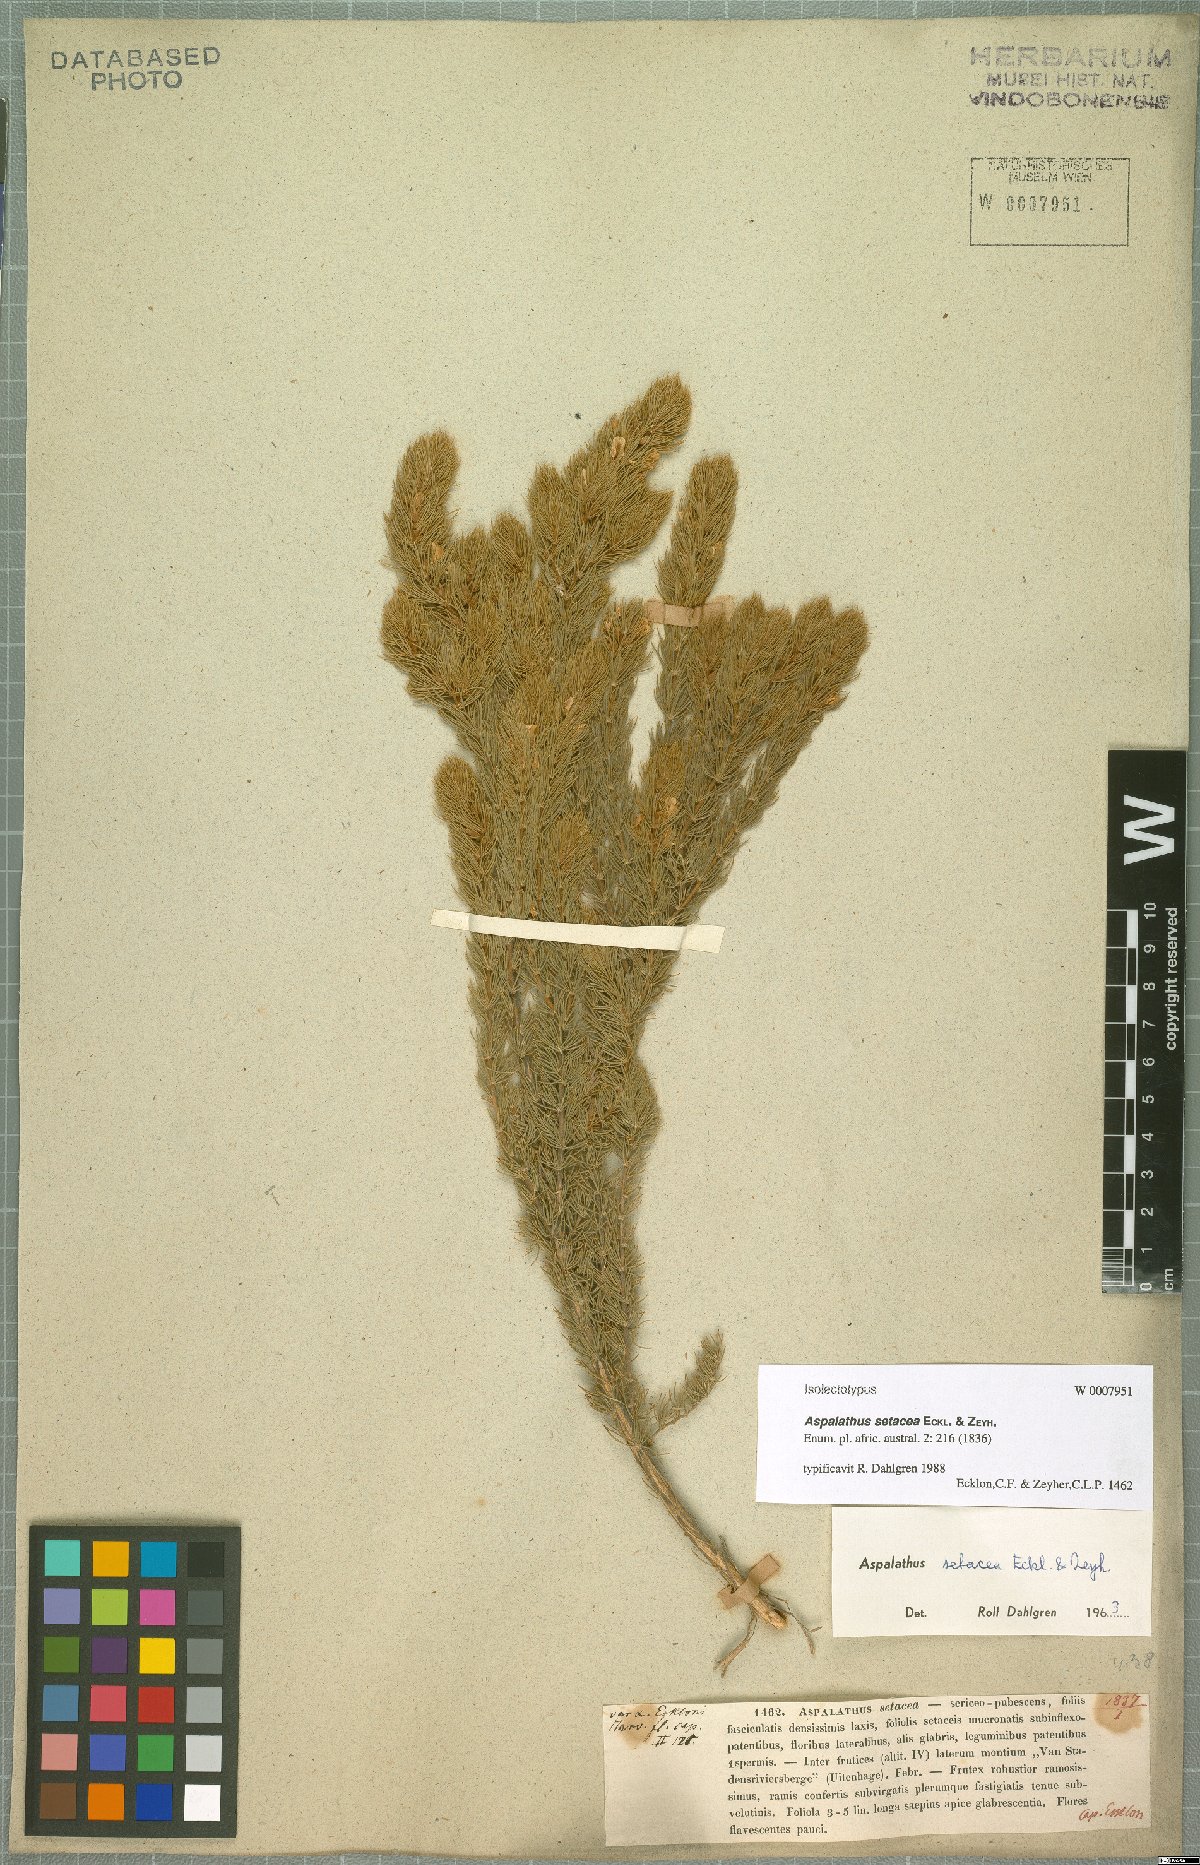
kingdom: Plantae
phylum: Tracheophyta
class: Magnoliopsida
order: Fabales
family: Fabaceae
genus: Aspalathus
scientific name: Aspalathus setacea
